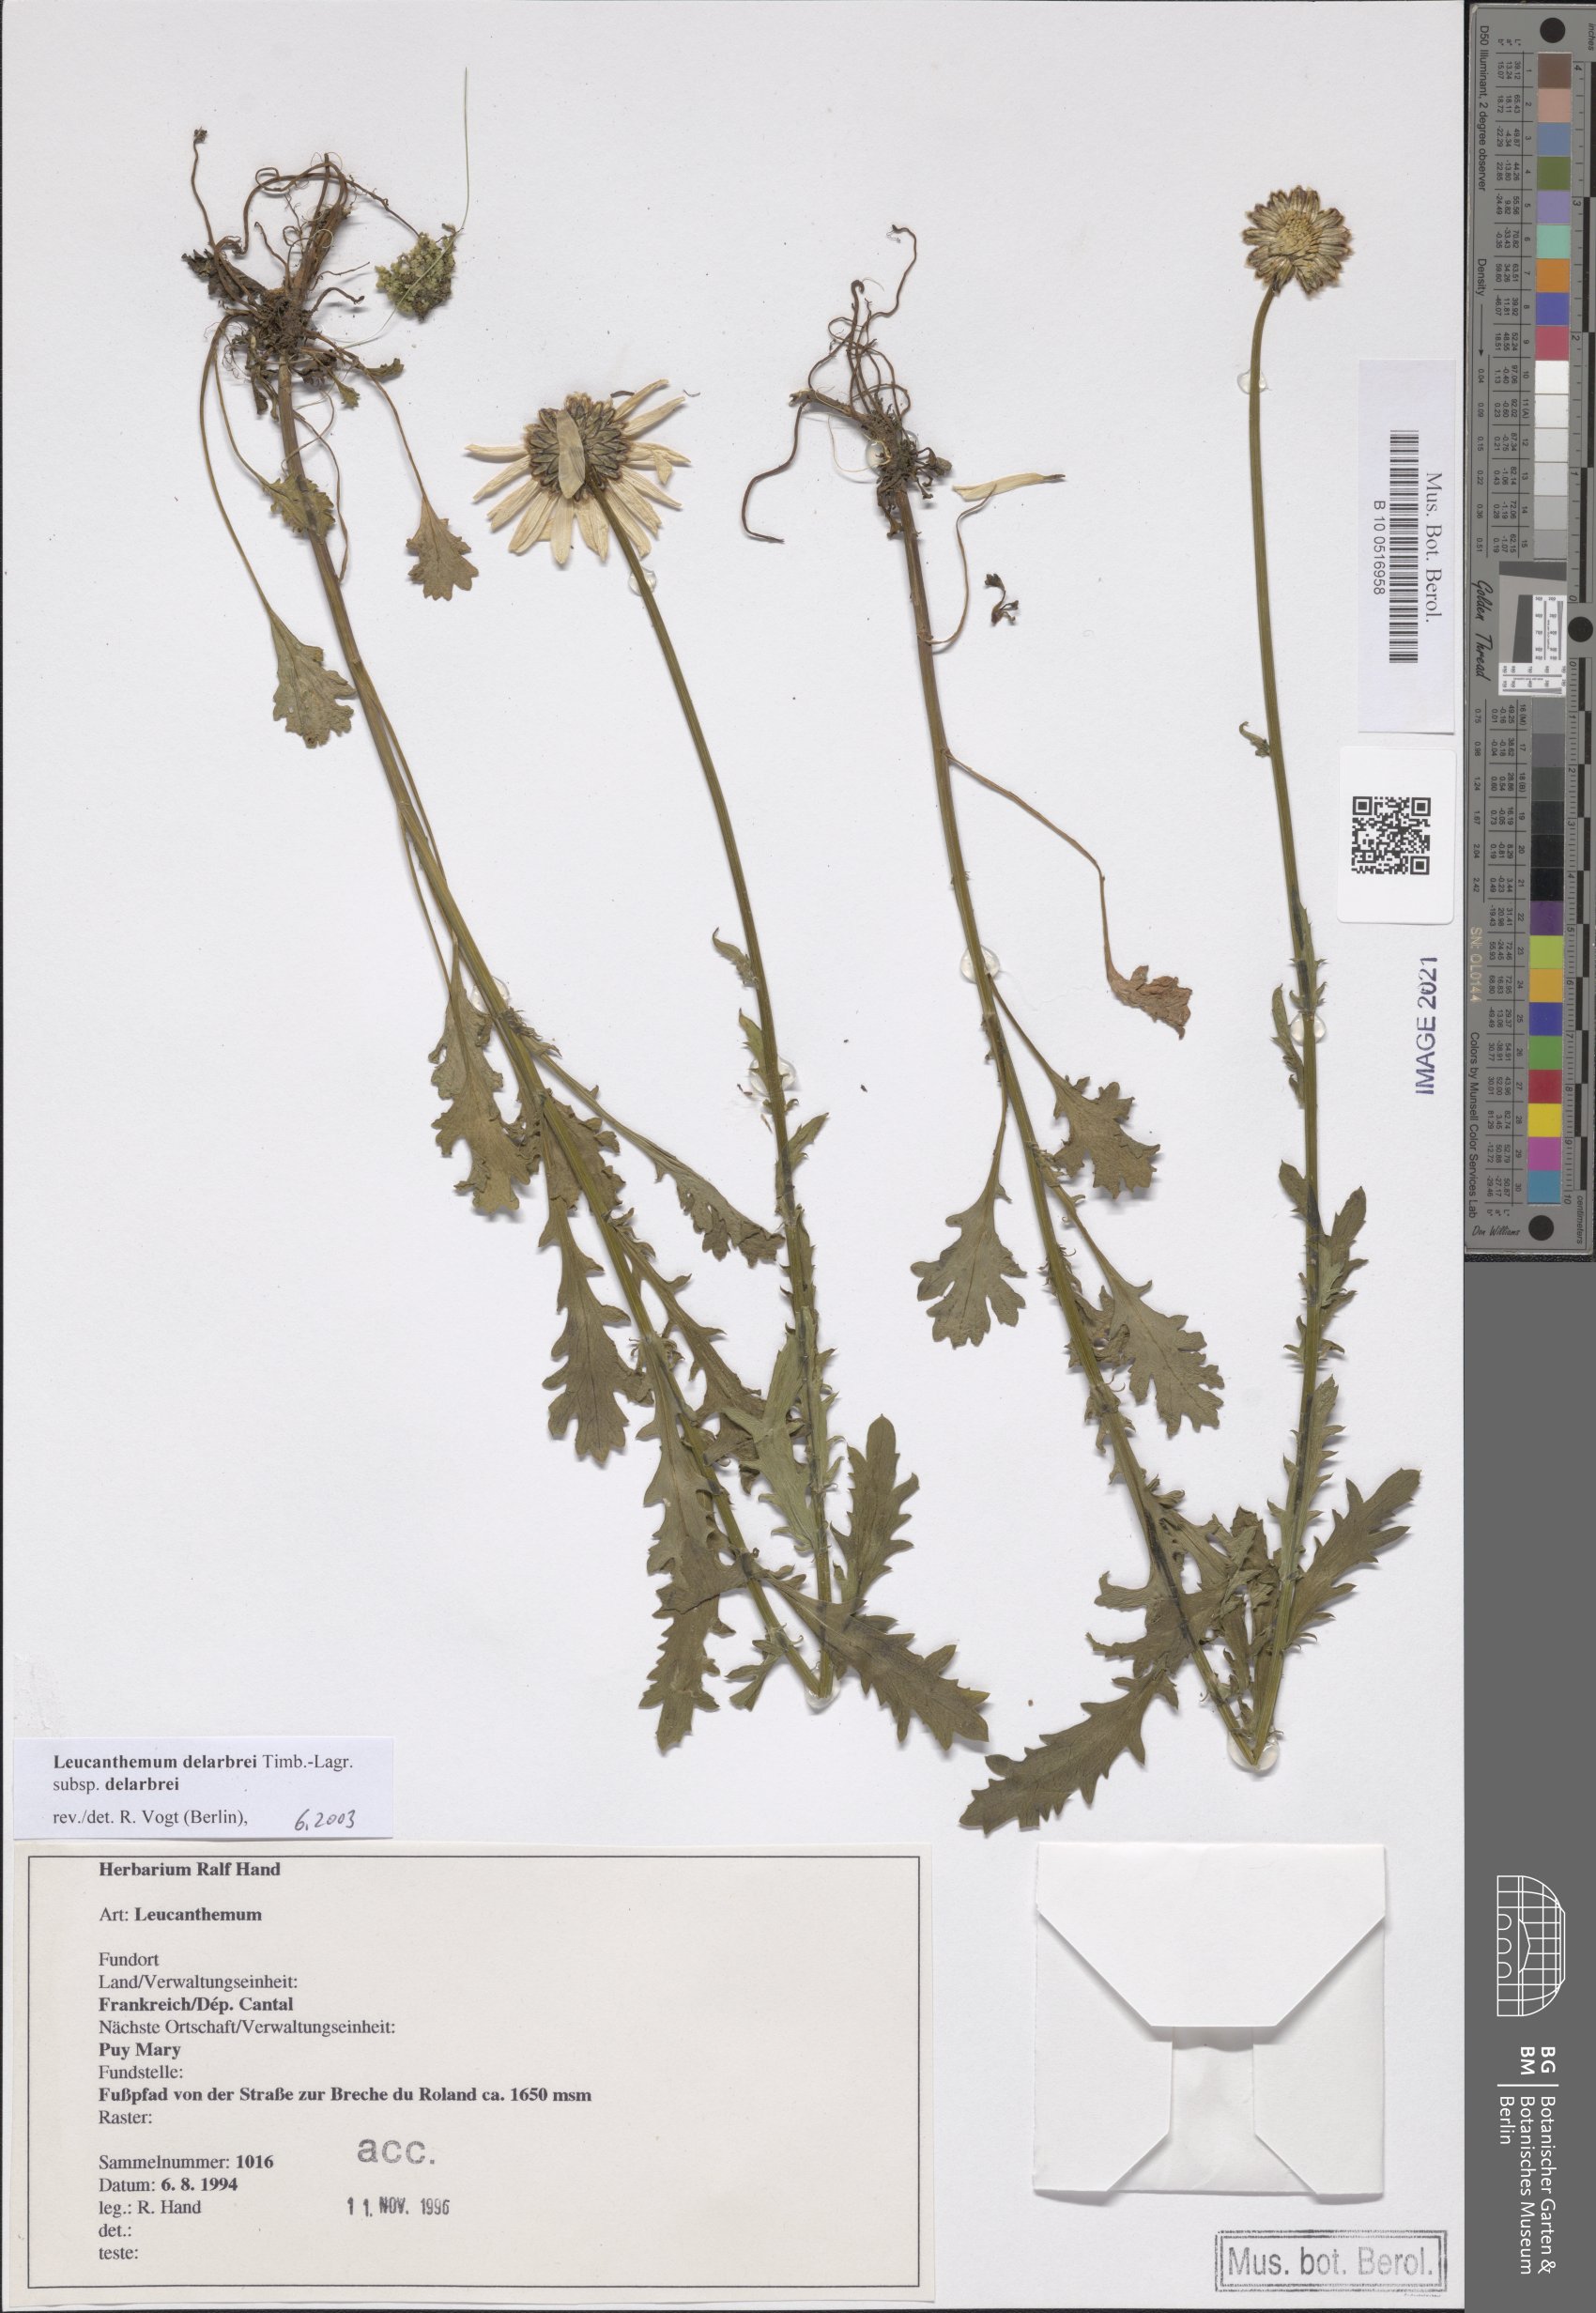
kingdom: Plantae
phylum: Tracheophyta
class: Magnoliopsida
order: Asterales
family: Asteraceae
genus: Leucanthemum
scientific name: Leucanthemum delarbrei
